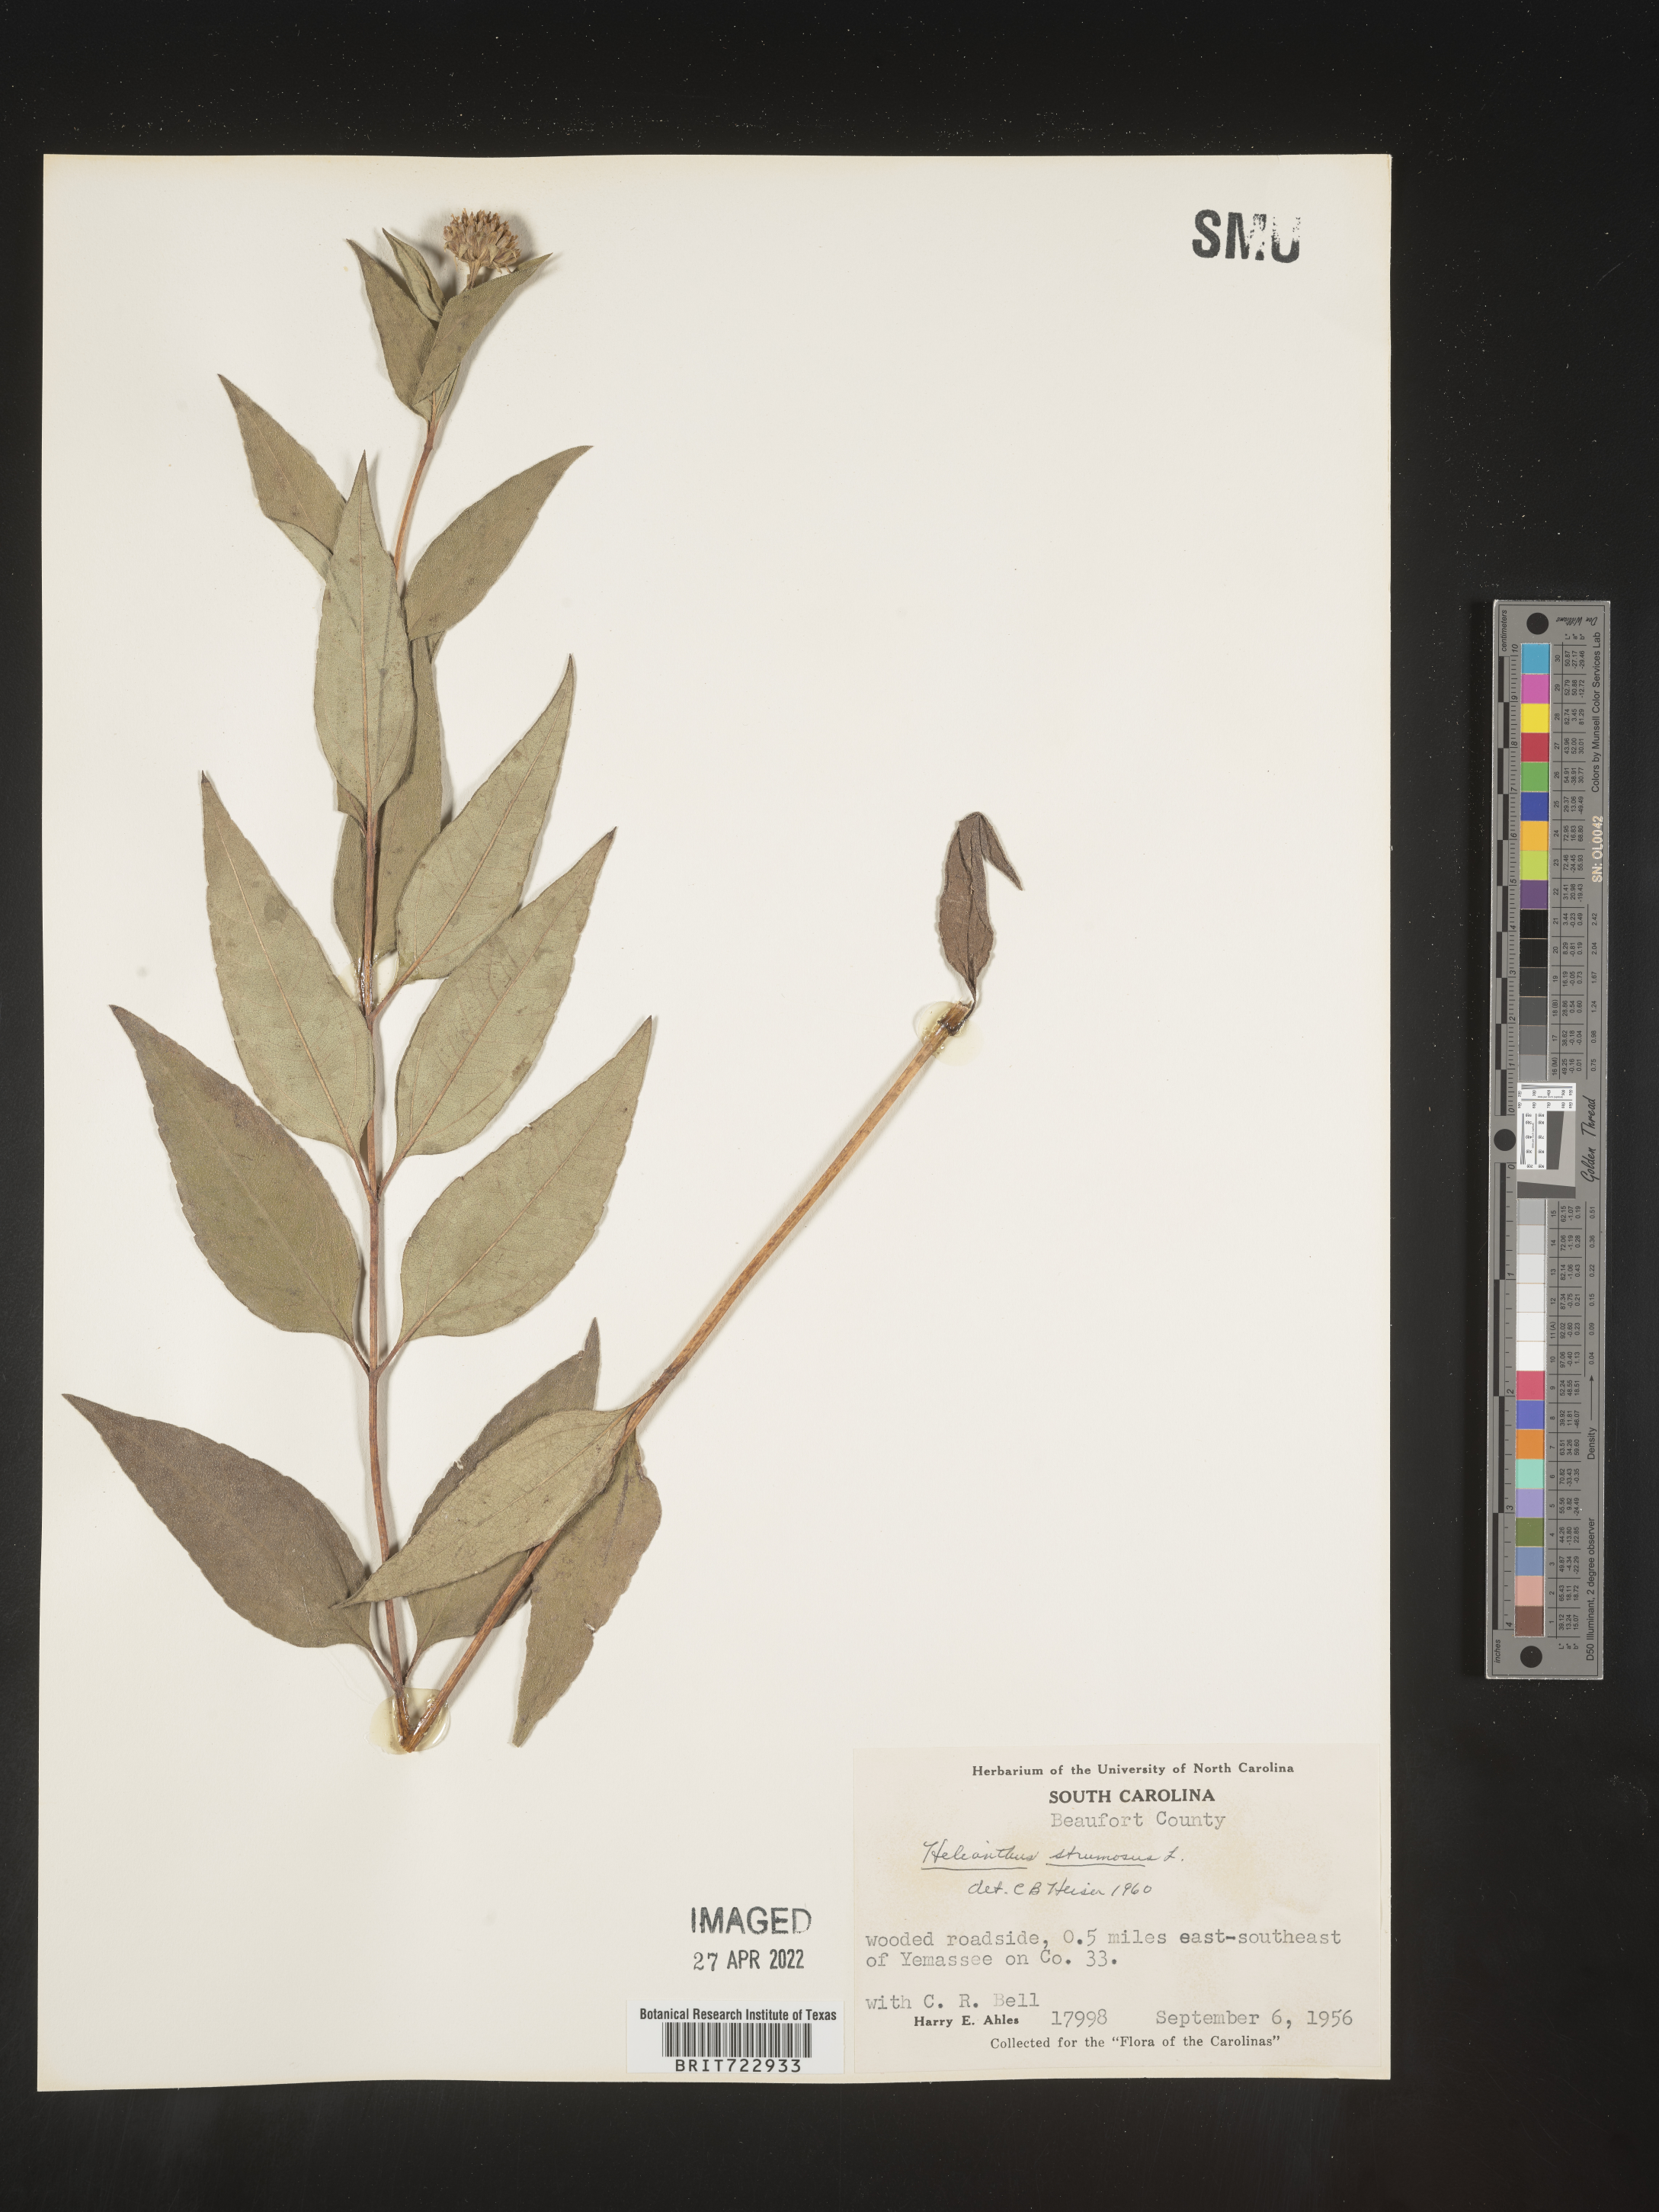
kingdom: Plantae
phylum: Tracheophyta
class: Magnoliopsida
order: Asterales
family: Asteraceae
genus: Helianthus
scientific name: Helianthus strumosus
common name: Pale-leaved sunflower
